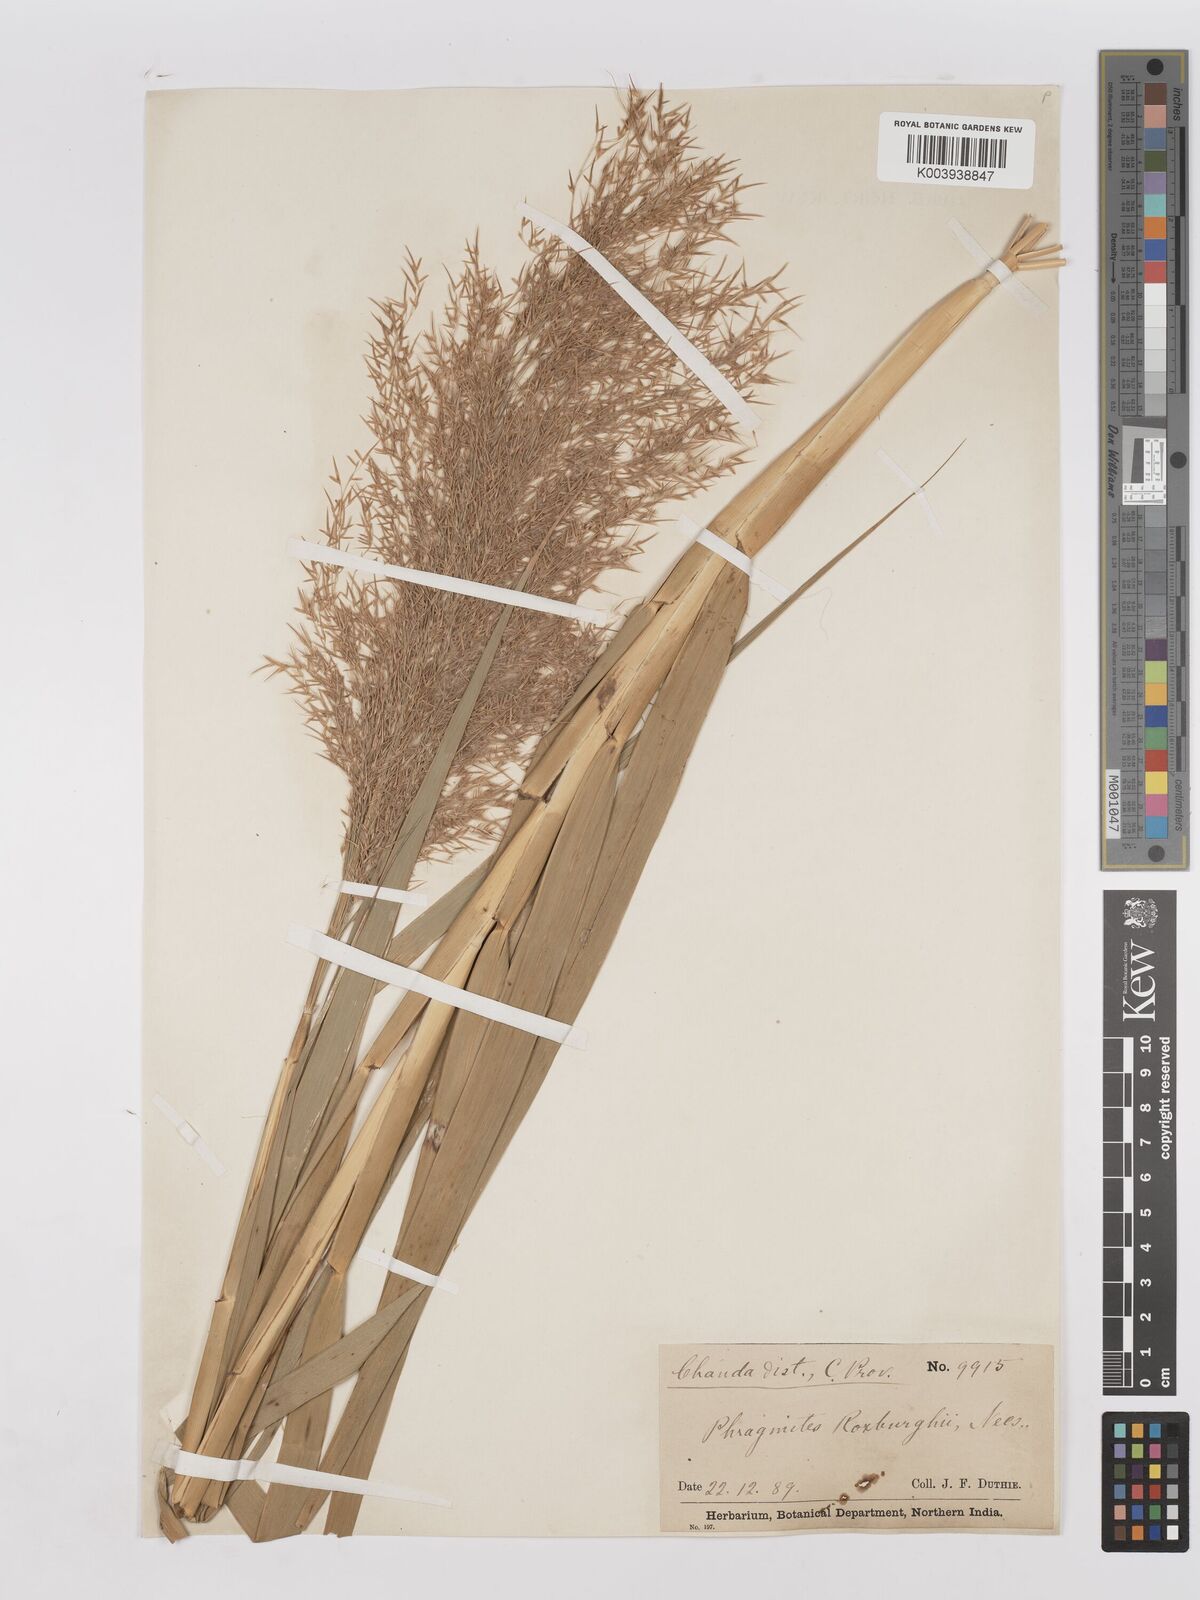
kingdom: Plantae
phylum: Tracheophyta
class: Liliopsida
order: Poales
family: Poaceae
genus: Phragmites
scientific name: Phragmites karka
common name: Tropical reed
